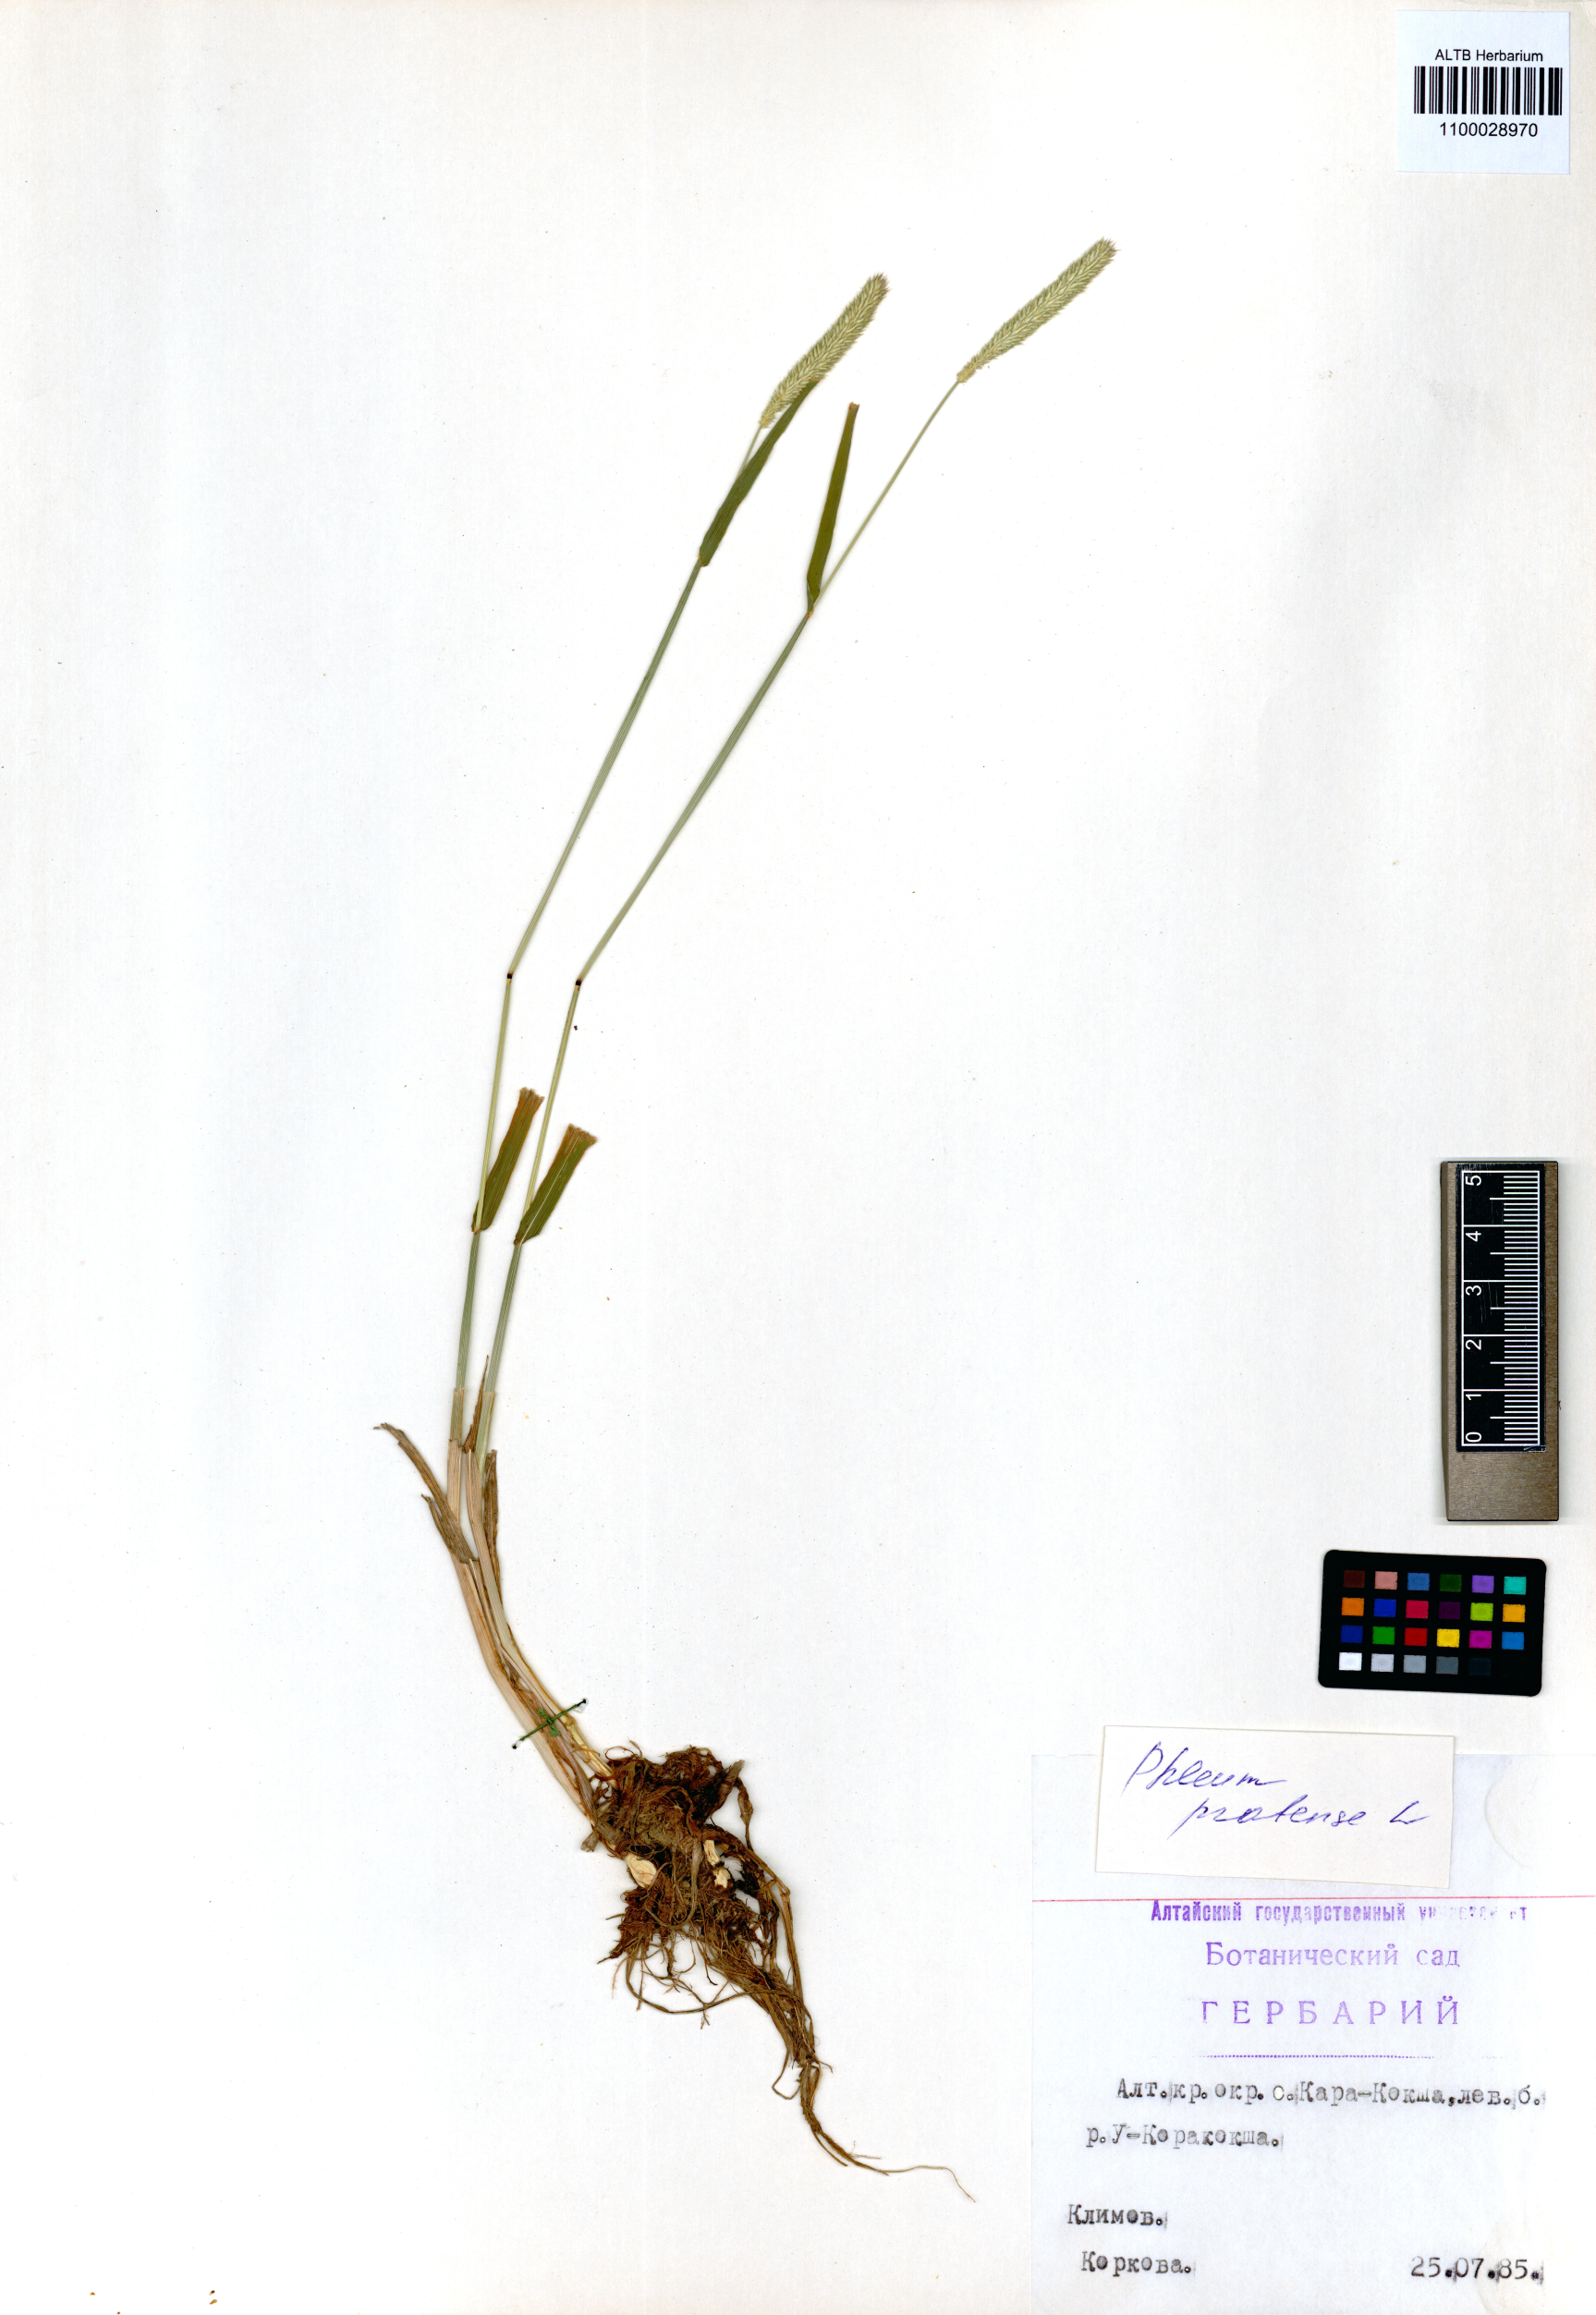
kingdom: Plantae
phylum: Tracheophyta
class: Liliopsida
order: Poales
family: Poaceae
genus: Phleum
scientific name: Phleum pratense
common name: Timothy grass
